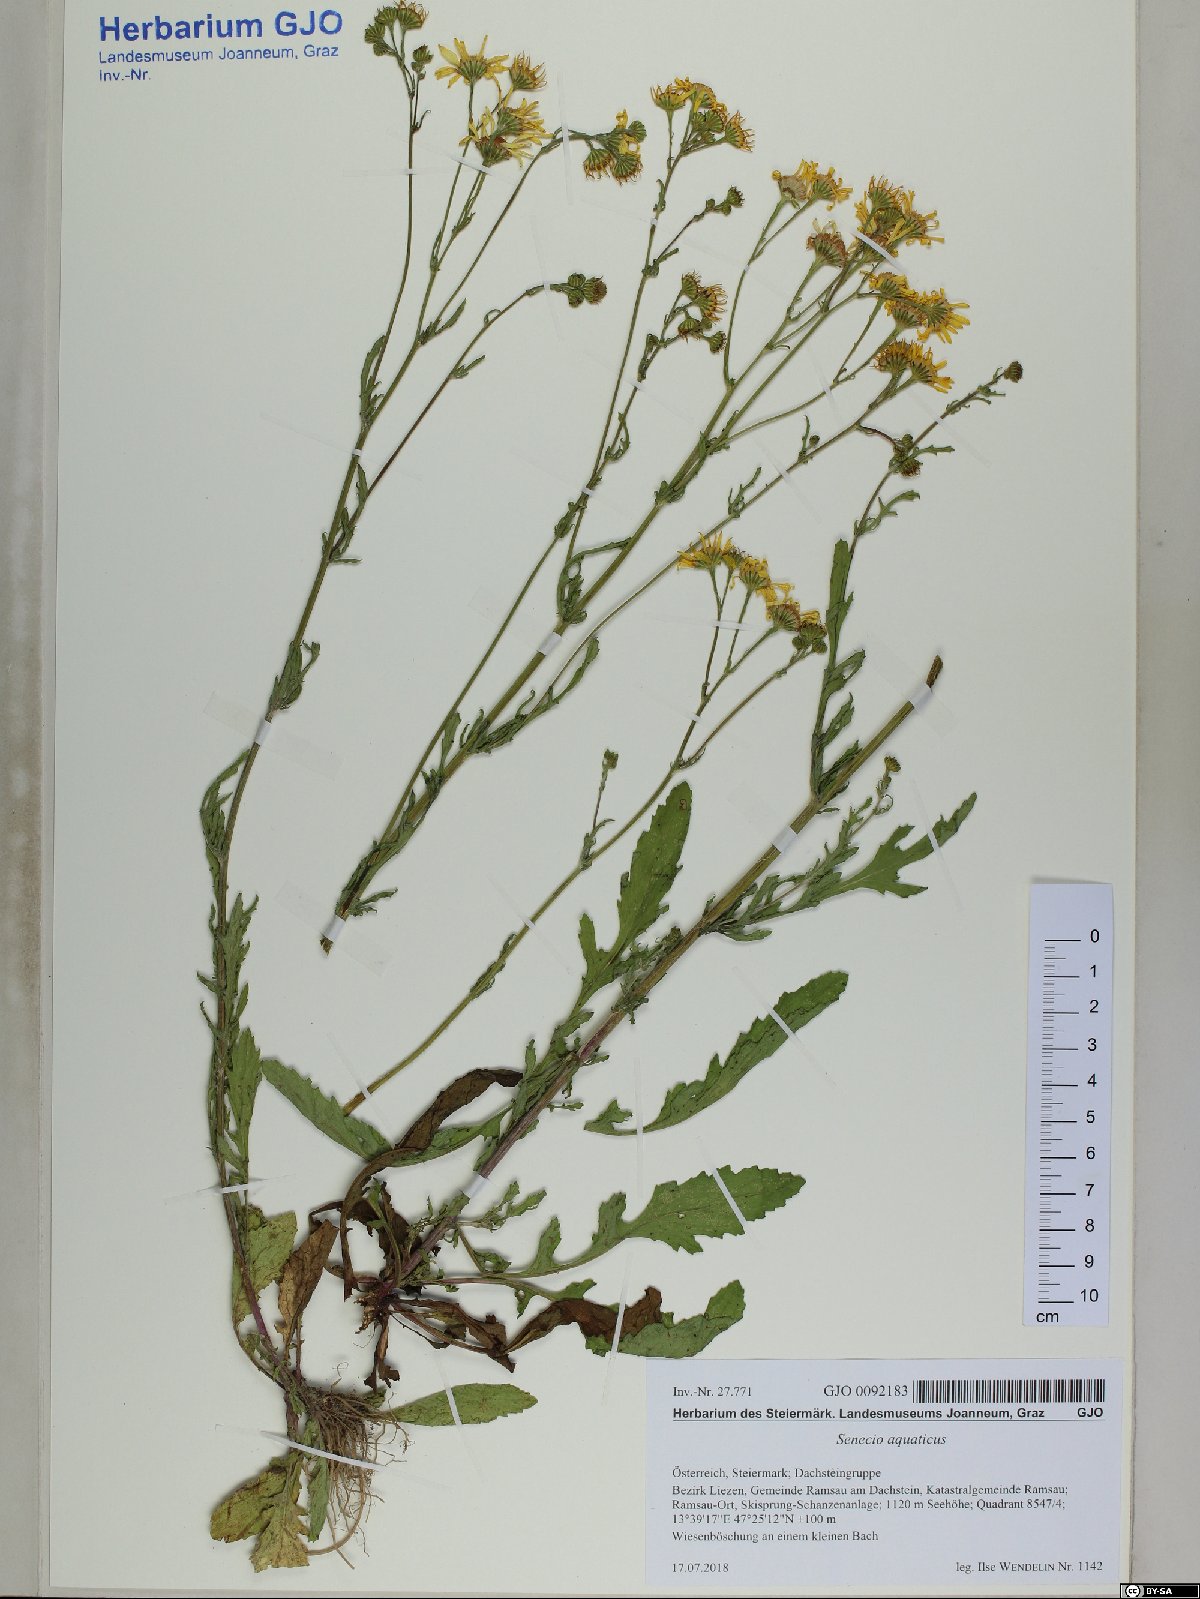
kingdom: Plantae
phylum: Tracheophyta
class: Magnoliopsida
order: Asterales
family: Asteraceae
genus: Jacobaea
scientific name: Jacobaea aquatica
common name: Water ragwort
